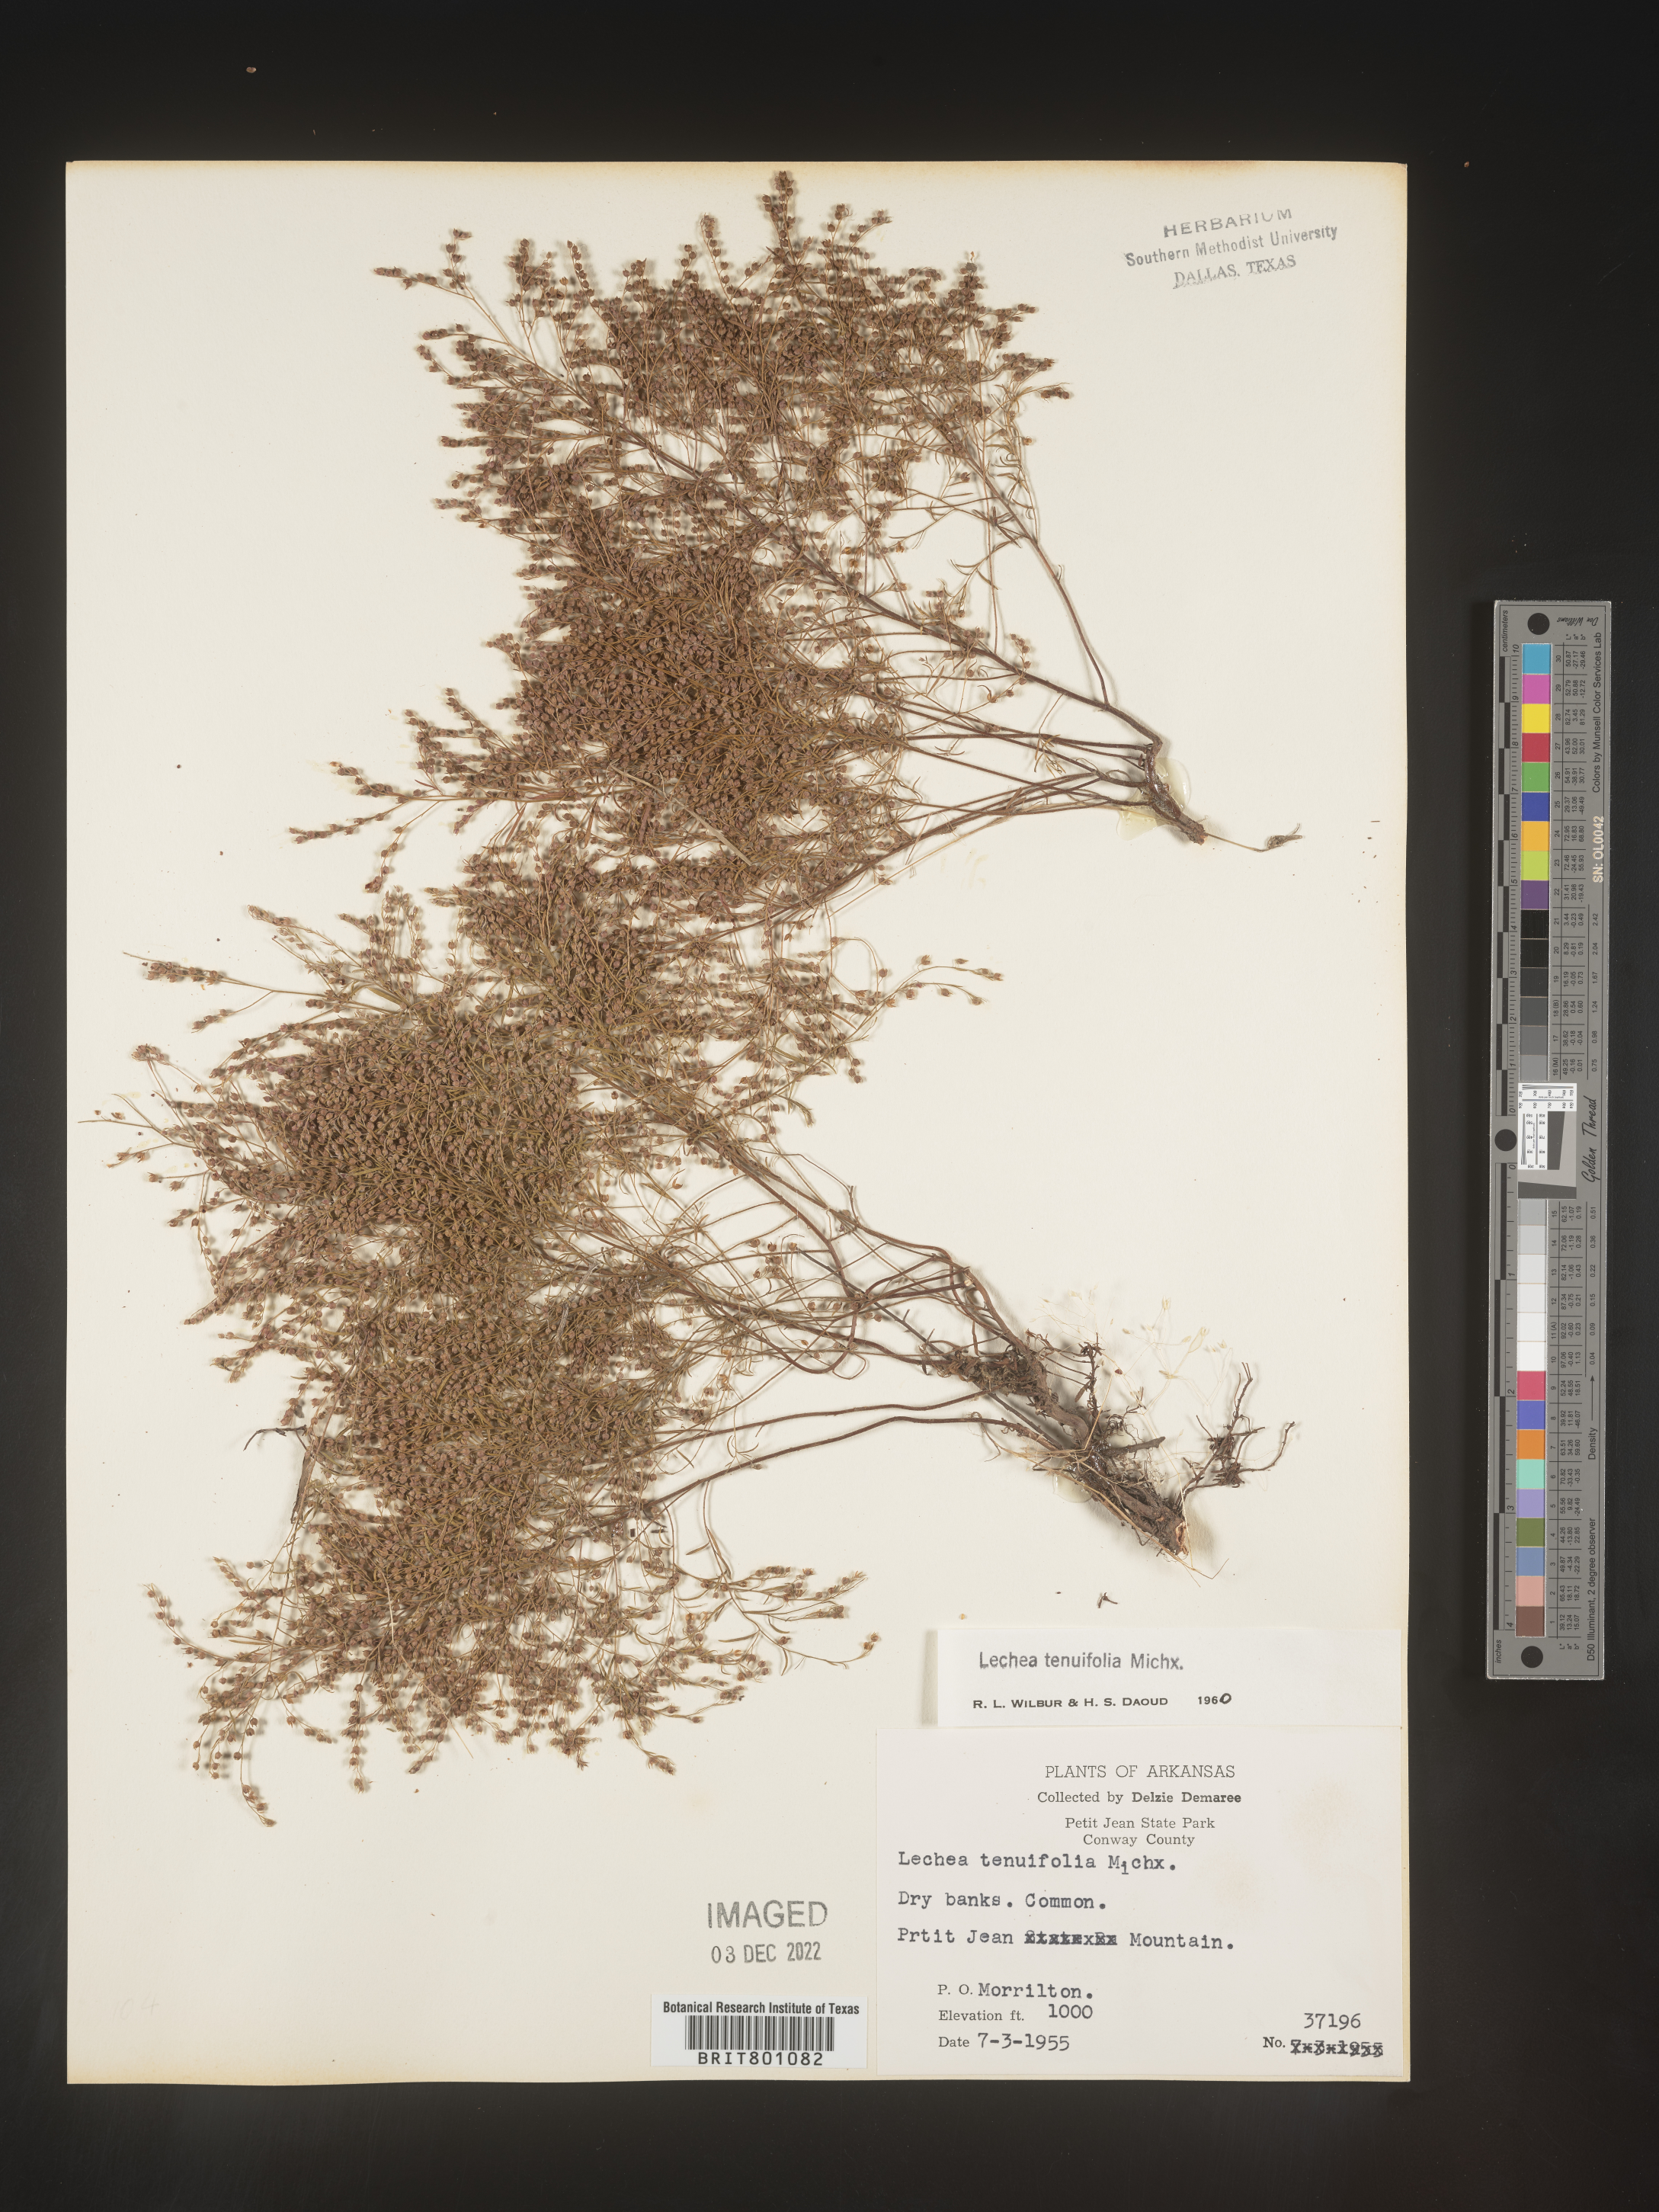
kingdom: Plantae
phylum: Tracheophyta
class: Magnoliopsida
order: Malvales
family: Cistaceae
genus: Lechea
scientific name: Lechea tenuifolia
